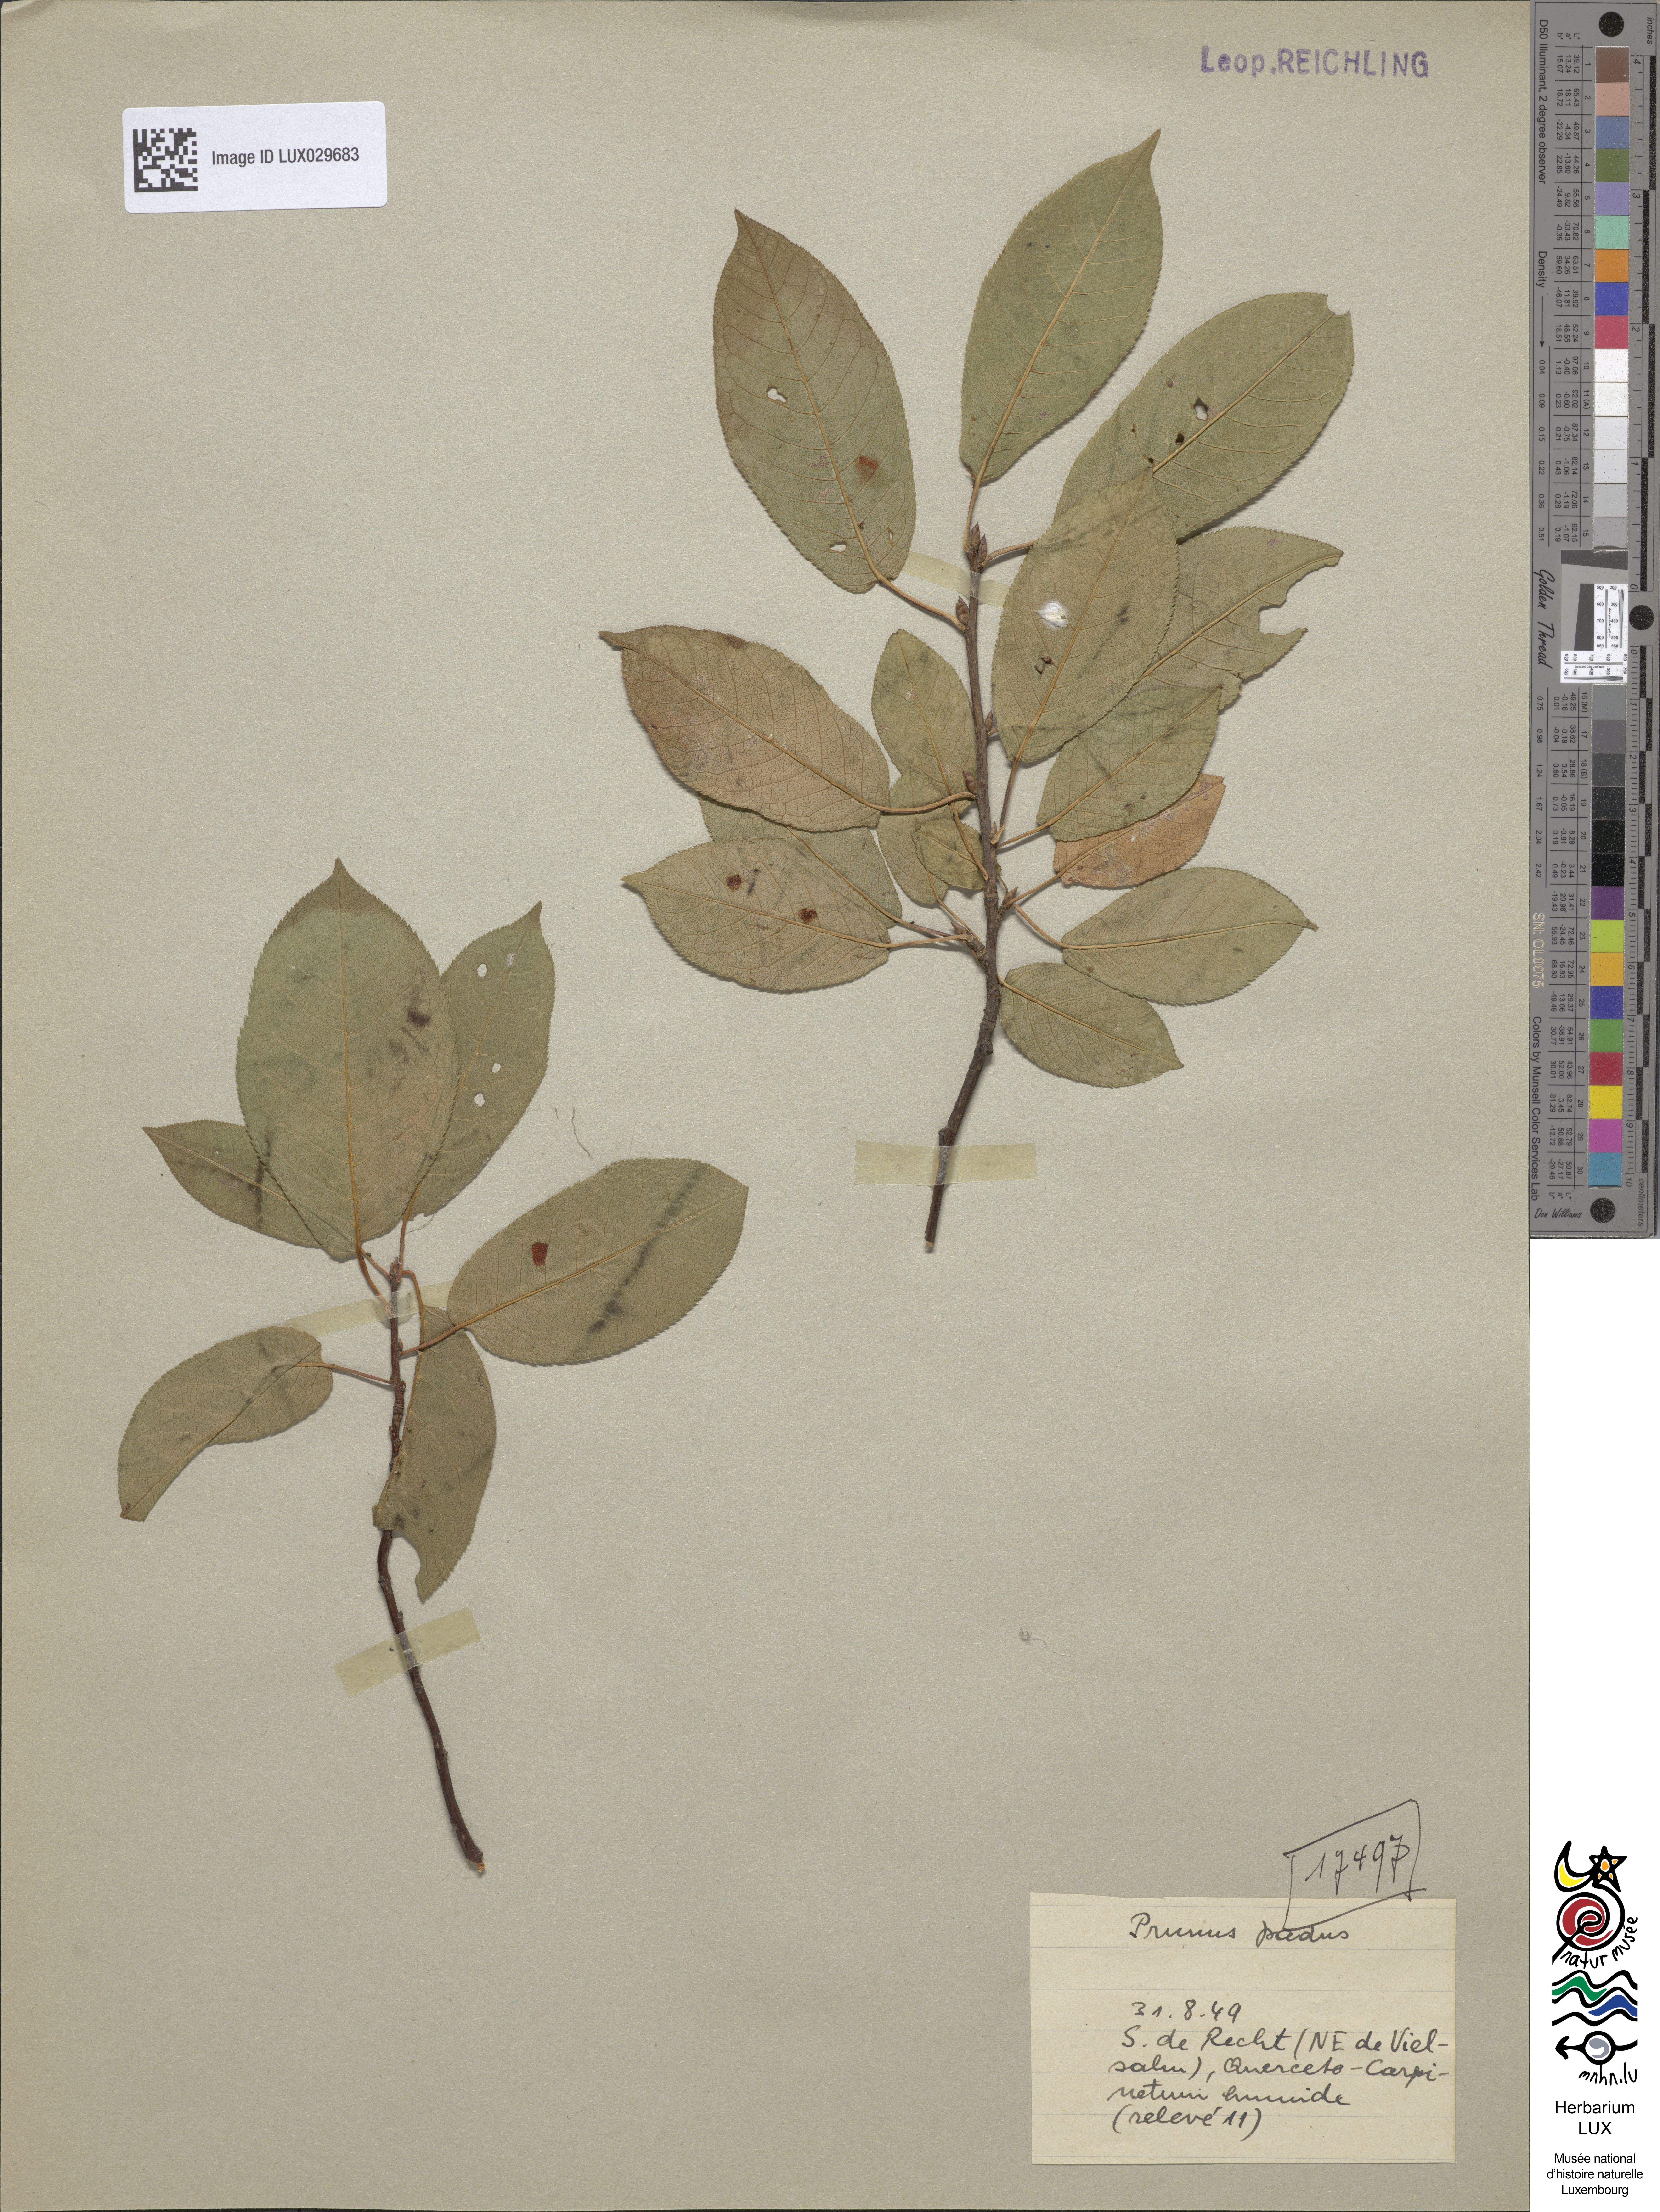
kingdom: Plantae
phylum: Tracheophyta
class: Magnoliopsida
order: Rosales
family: Rosaceae
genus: Prunus
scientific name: Prunus padus
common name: Bird cherry
